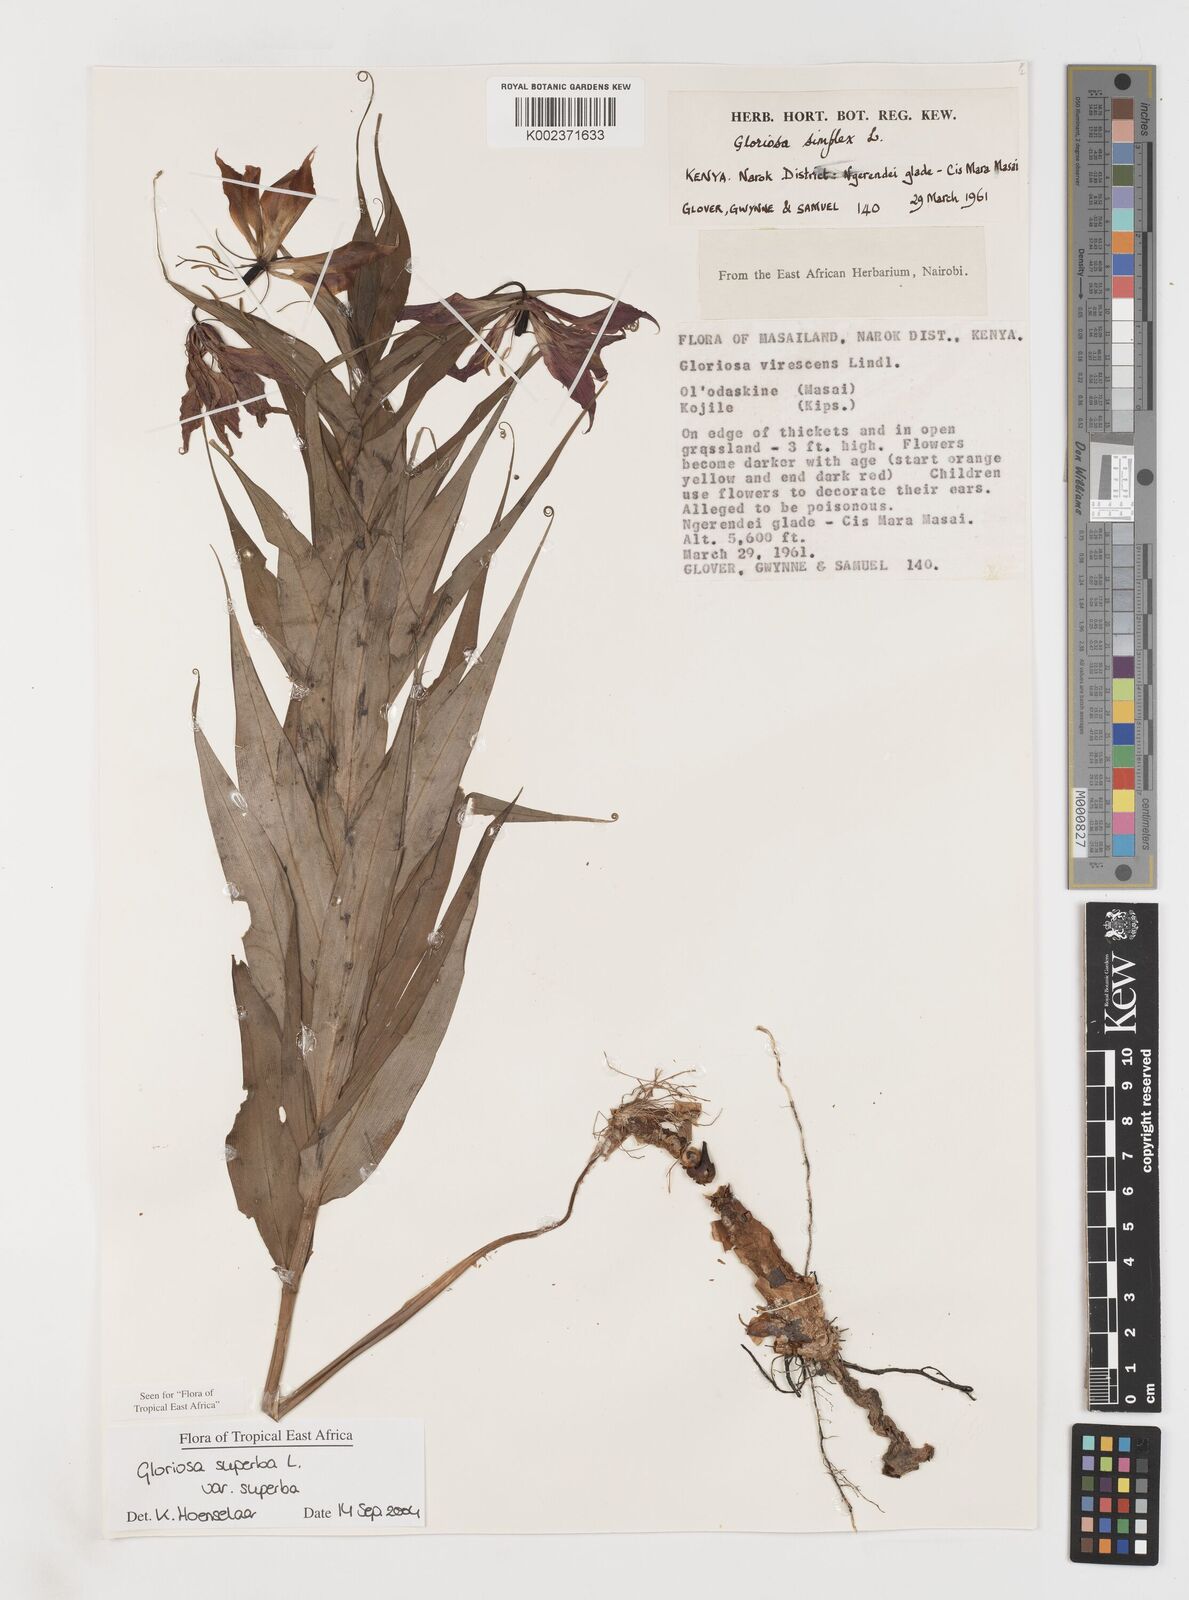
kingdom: Plantae
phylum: Tracheophyta
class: Liliopsida
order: Liliales
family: Colchicaceae
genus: Gloriosa
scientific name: Gloriosa simplex
